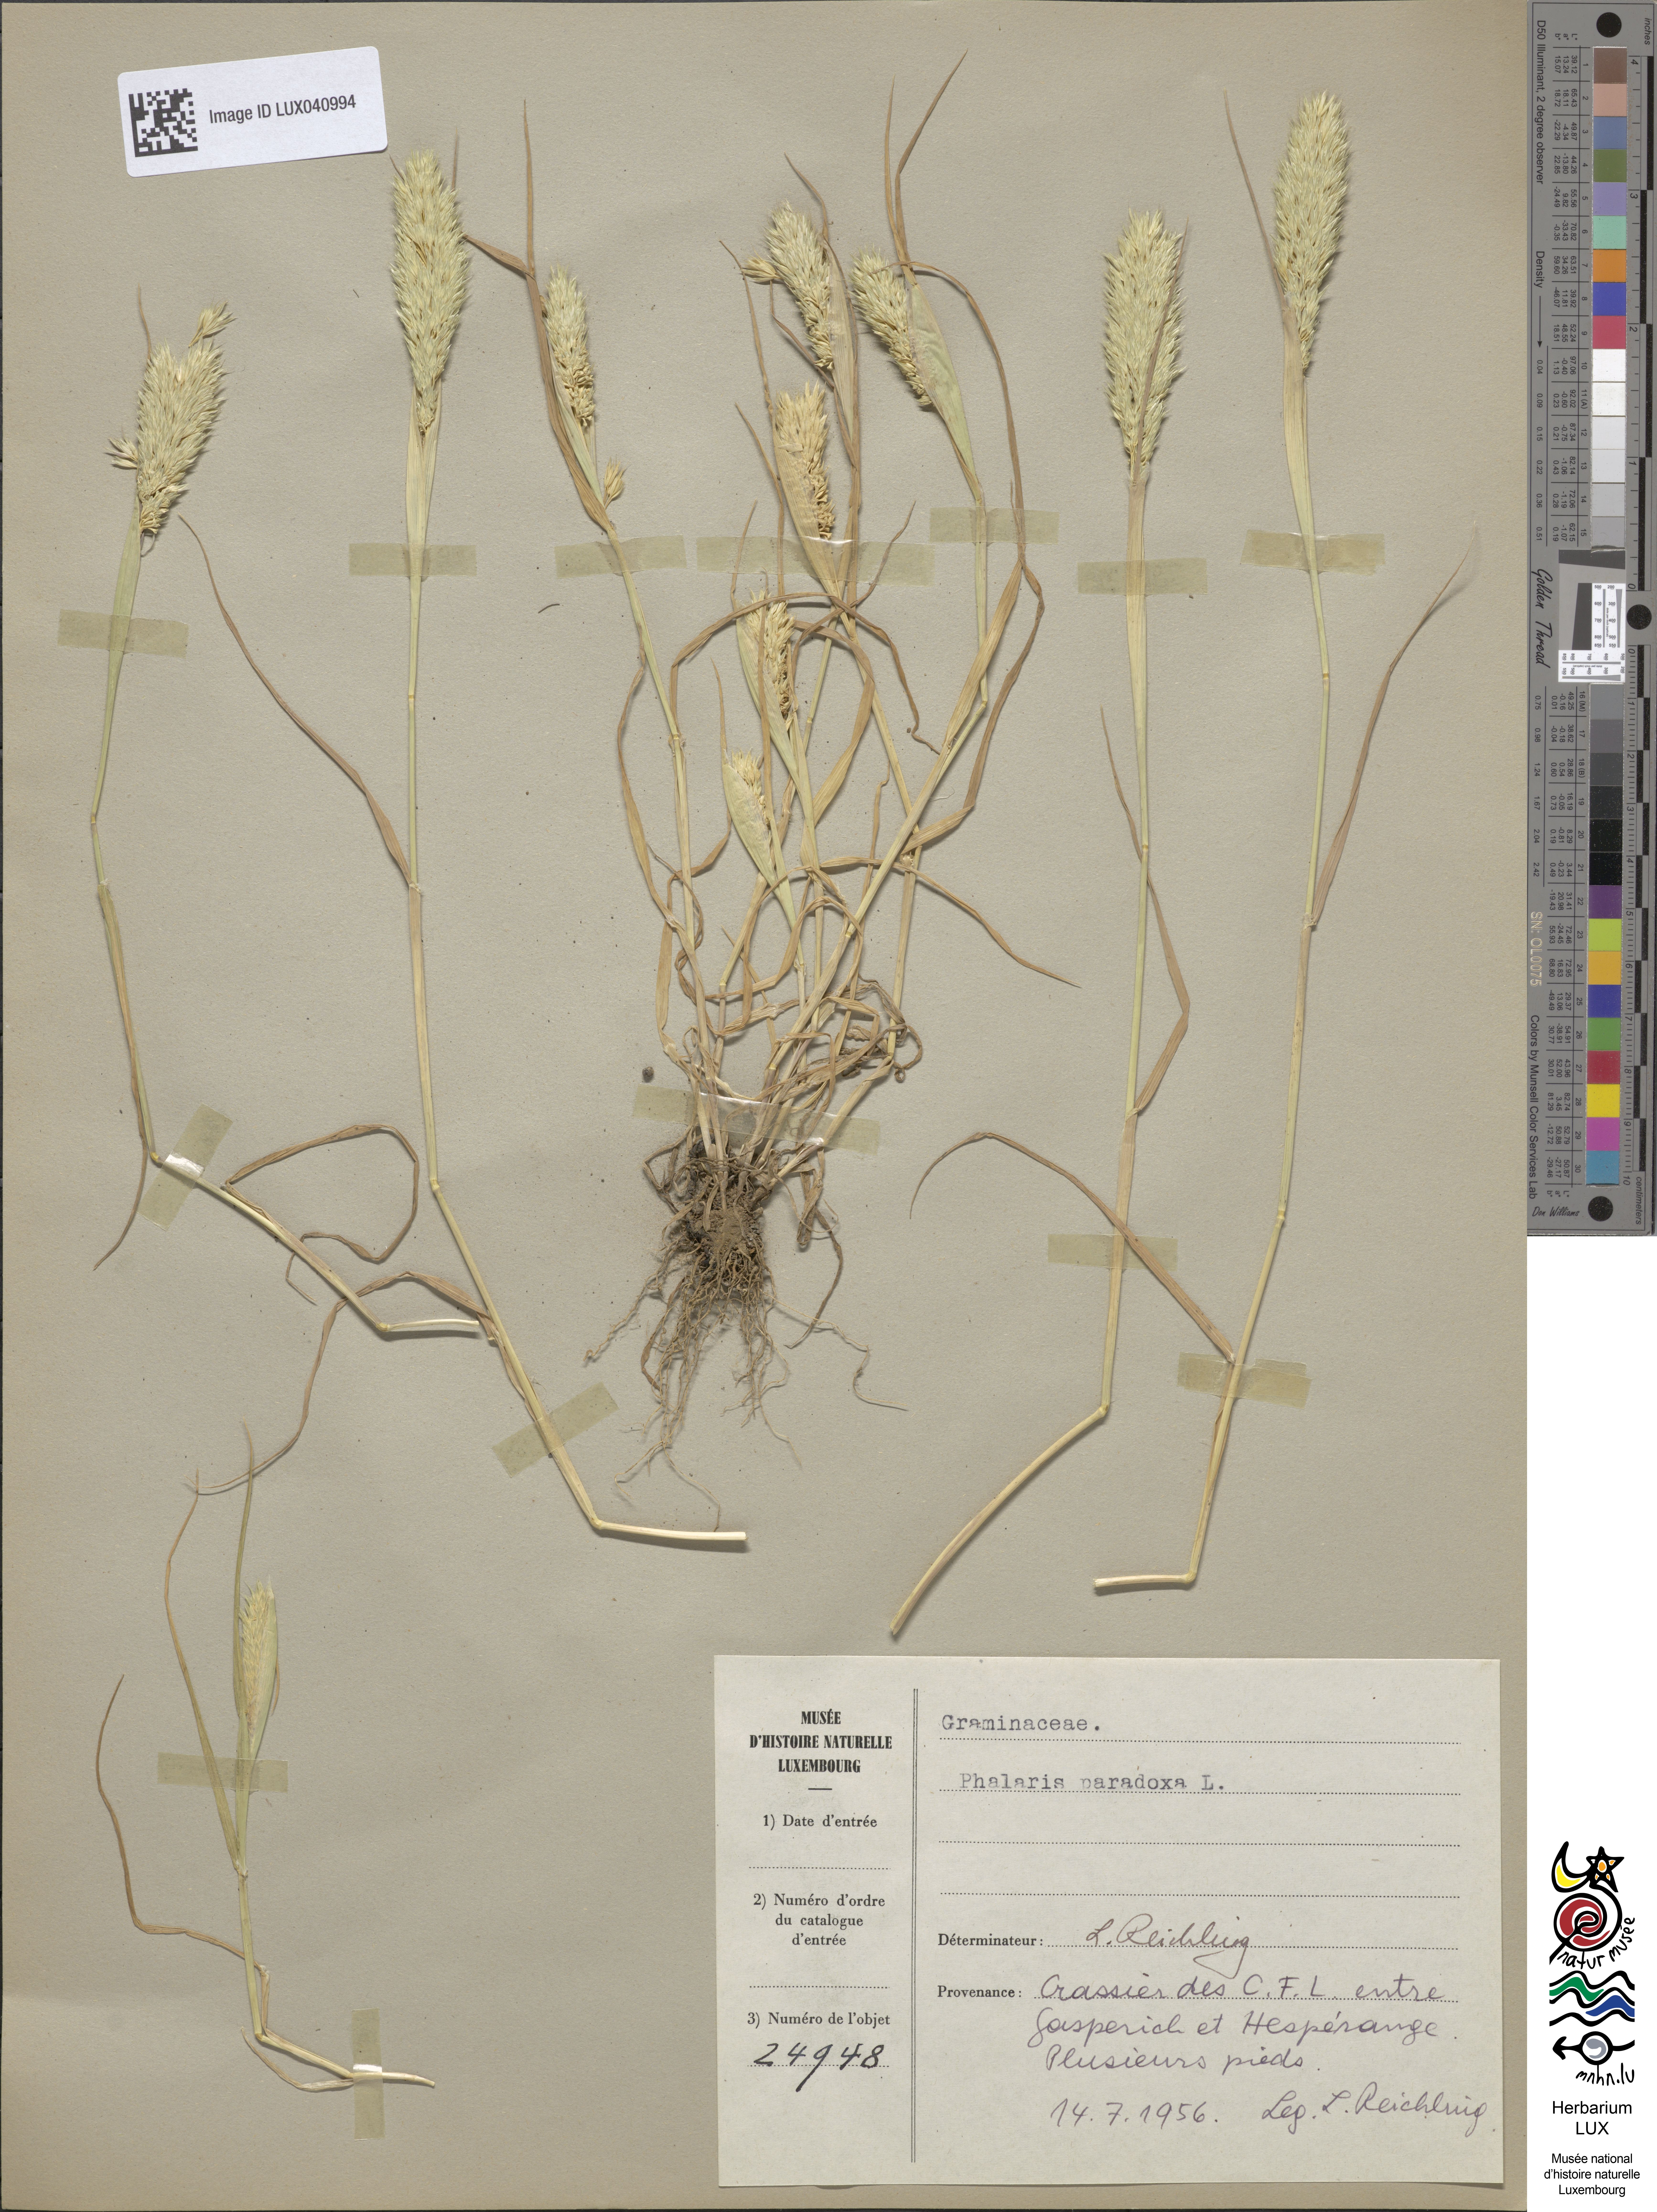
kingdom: Plantae
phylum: Tracheophyta
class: Liliopsida
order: Poales
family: Poaceae
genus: Phalaris
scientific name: Phalaris paradoxa
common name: Awned canary-grass
